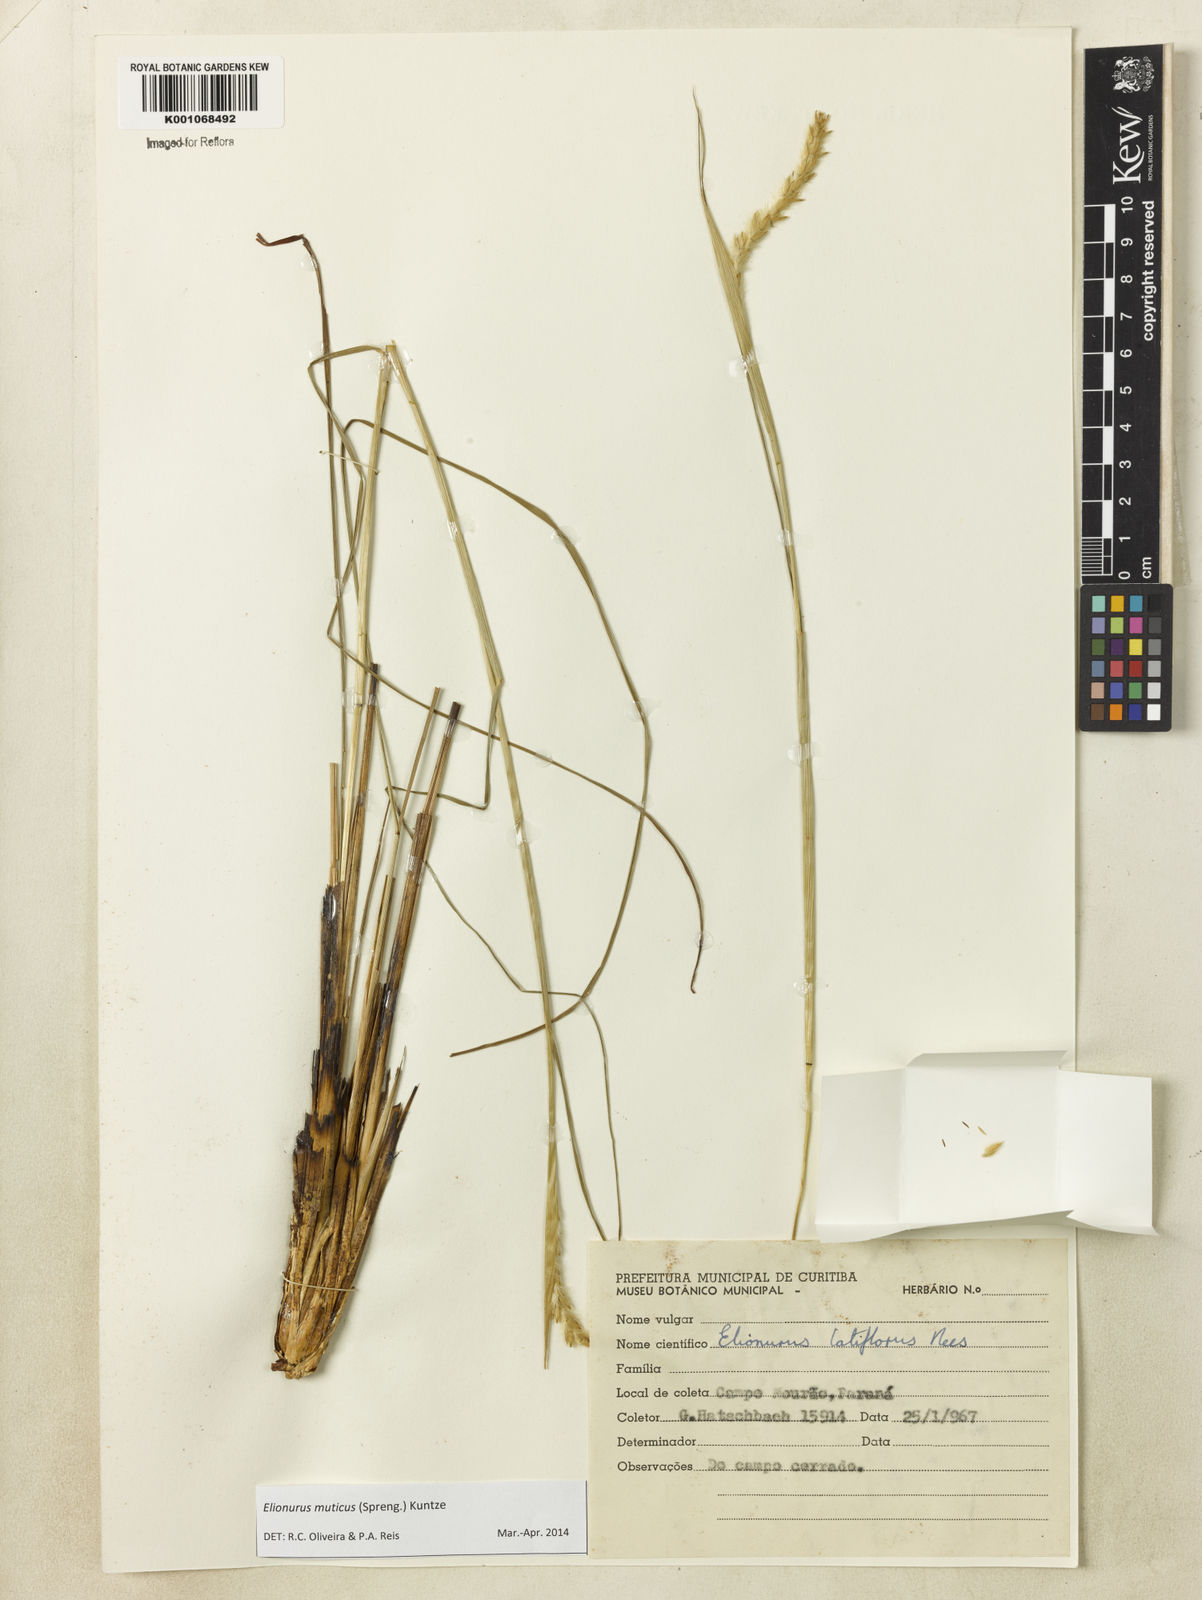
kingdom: Plantae
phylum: Tracheophyta
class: Liliopsida
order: Poales
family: Poaceae
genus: Elionurus
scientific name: Elionurus muticus
